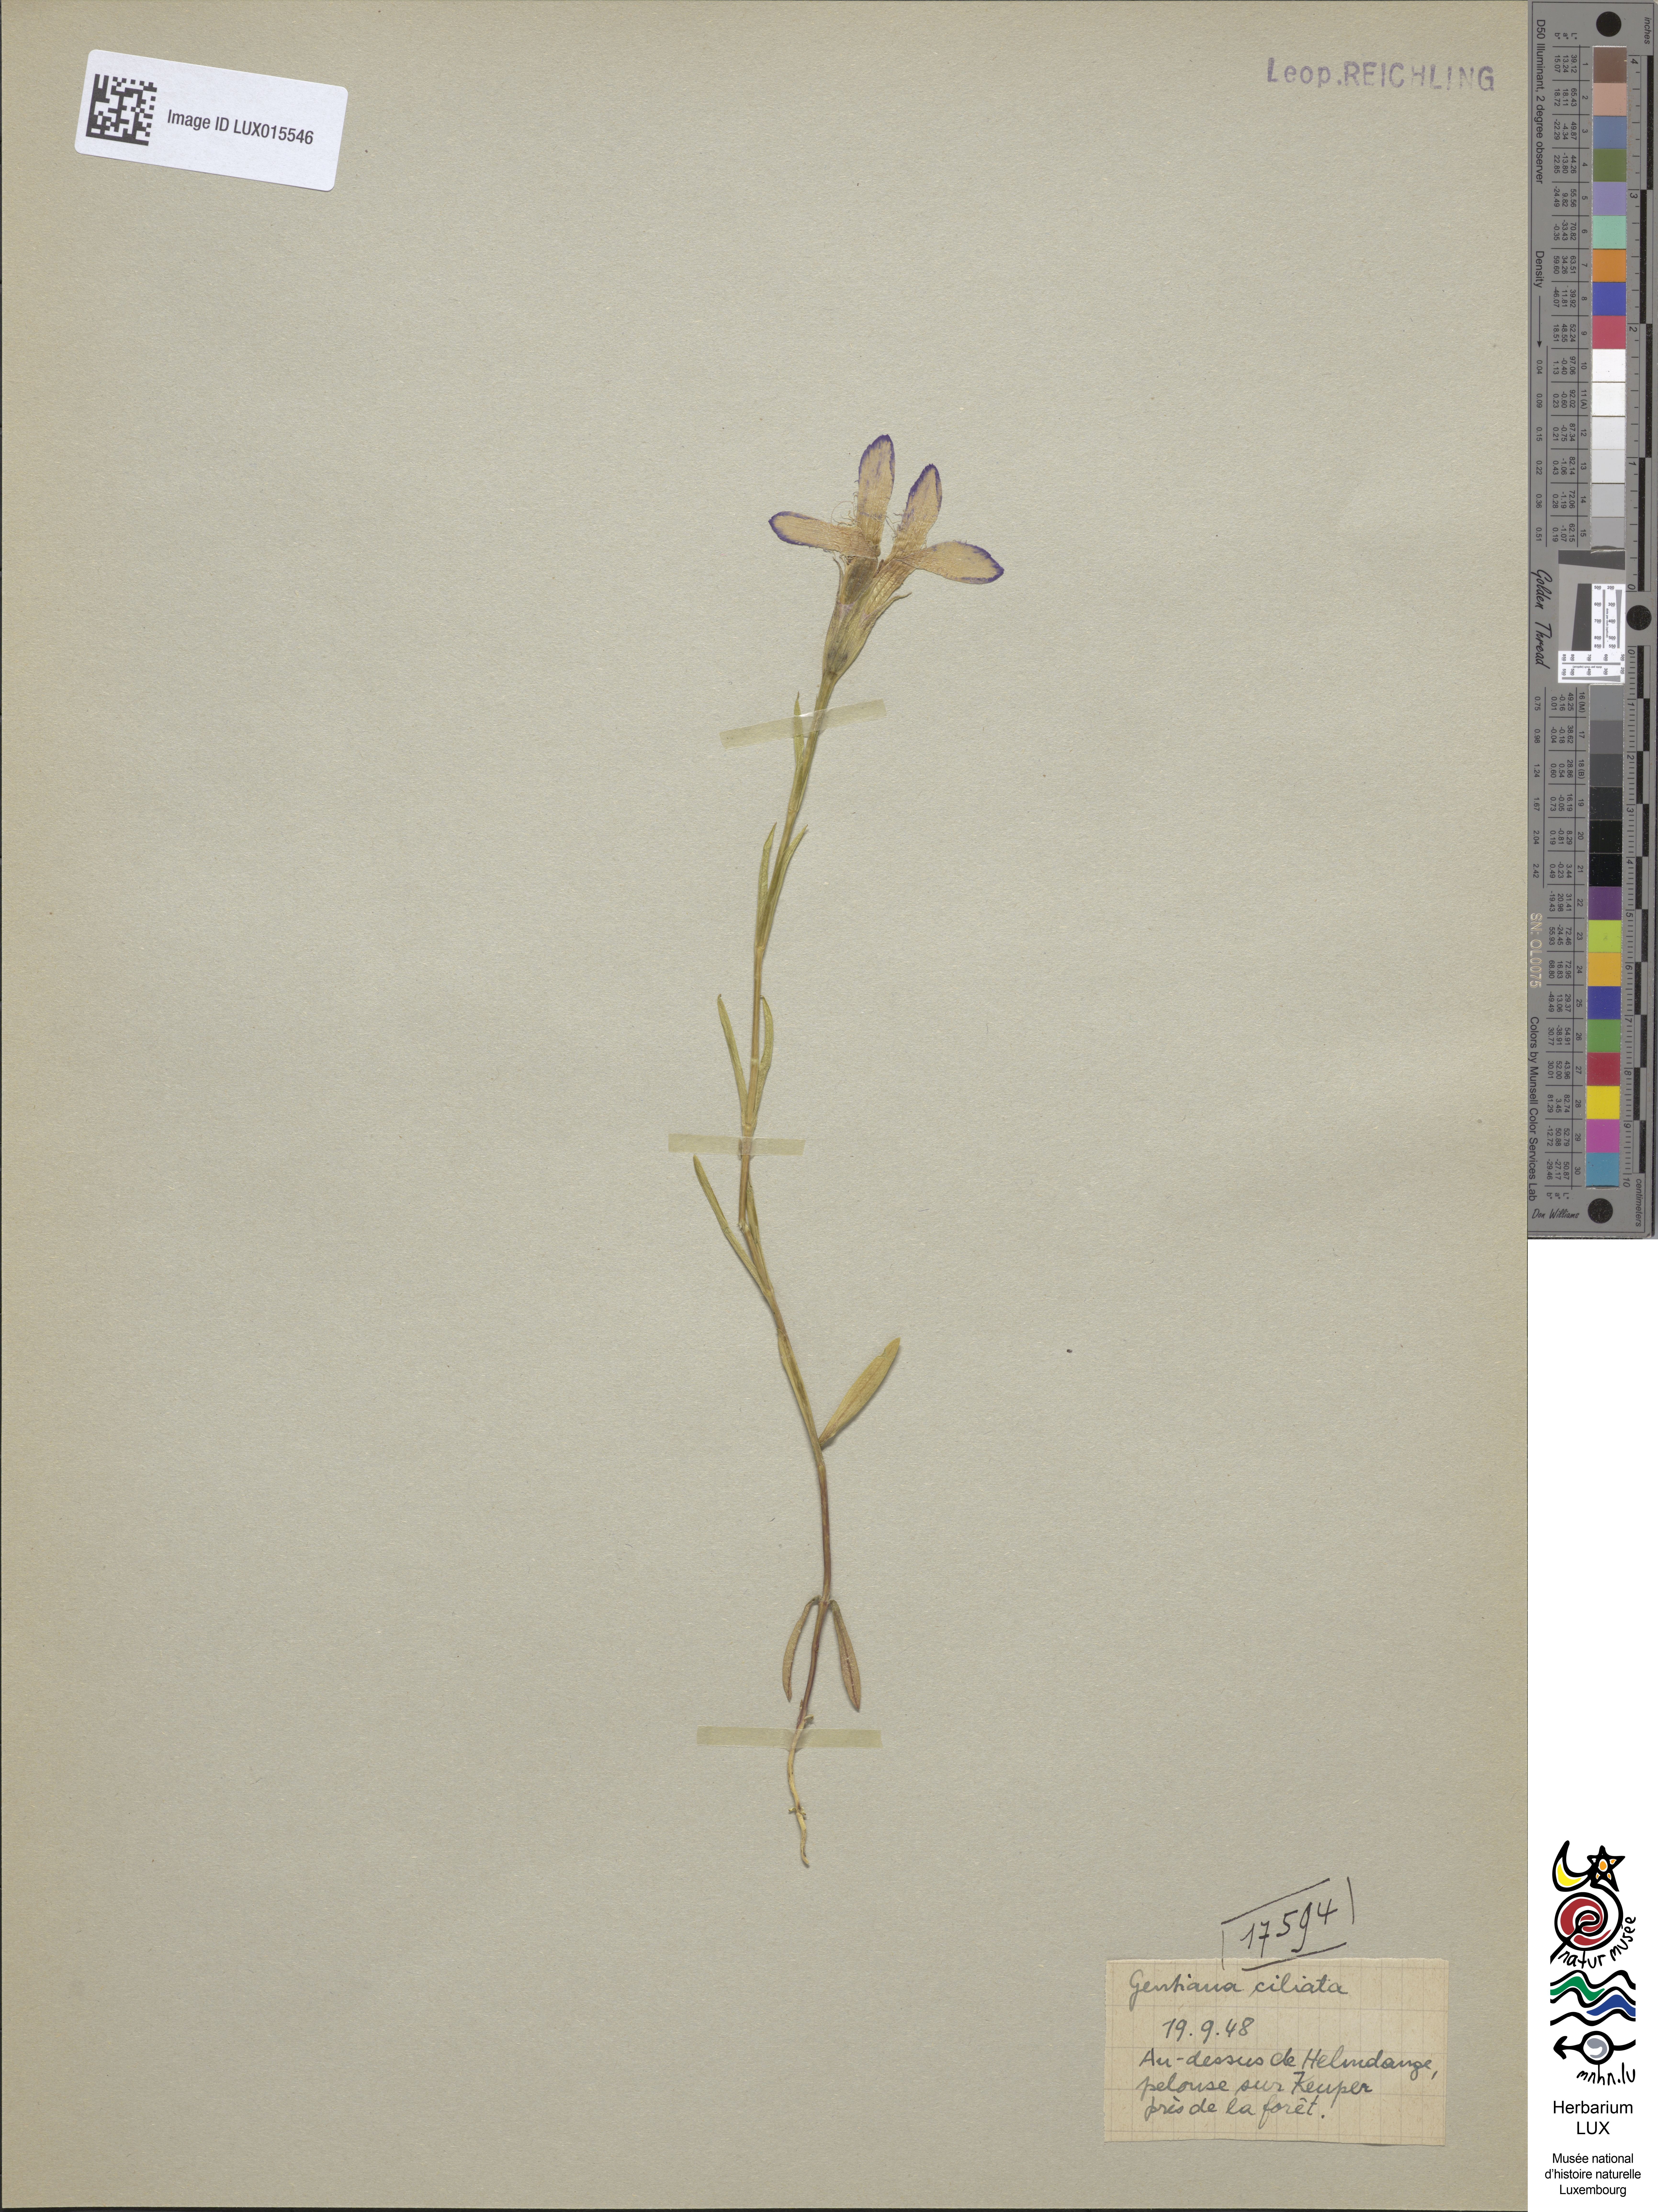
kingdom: Plantae
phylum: Tracheophyta
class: Magnoliopsida
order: Gentianales
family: Gentianaceae
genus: Gentianopsis
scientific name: Gentianopsis ciliata
